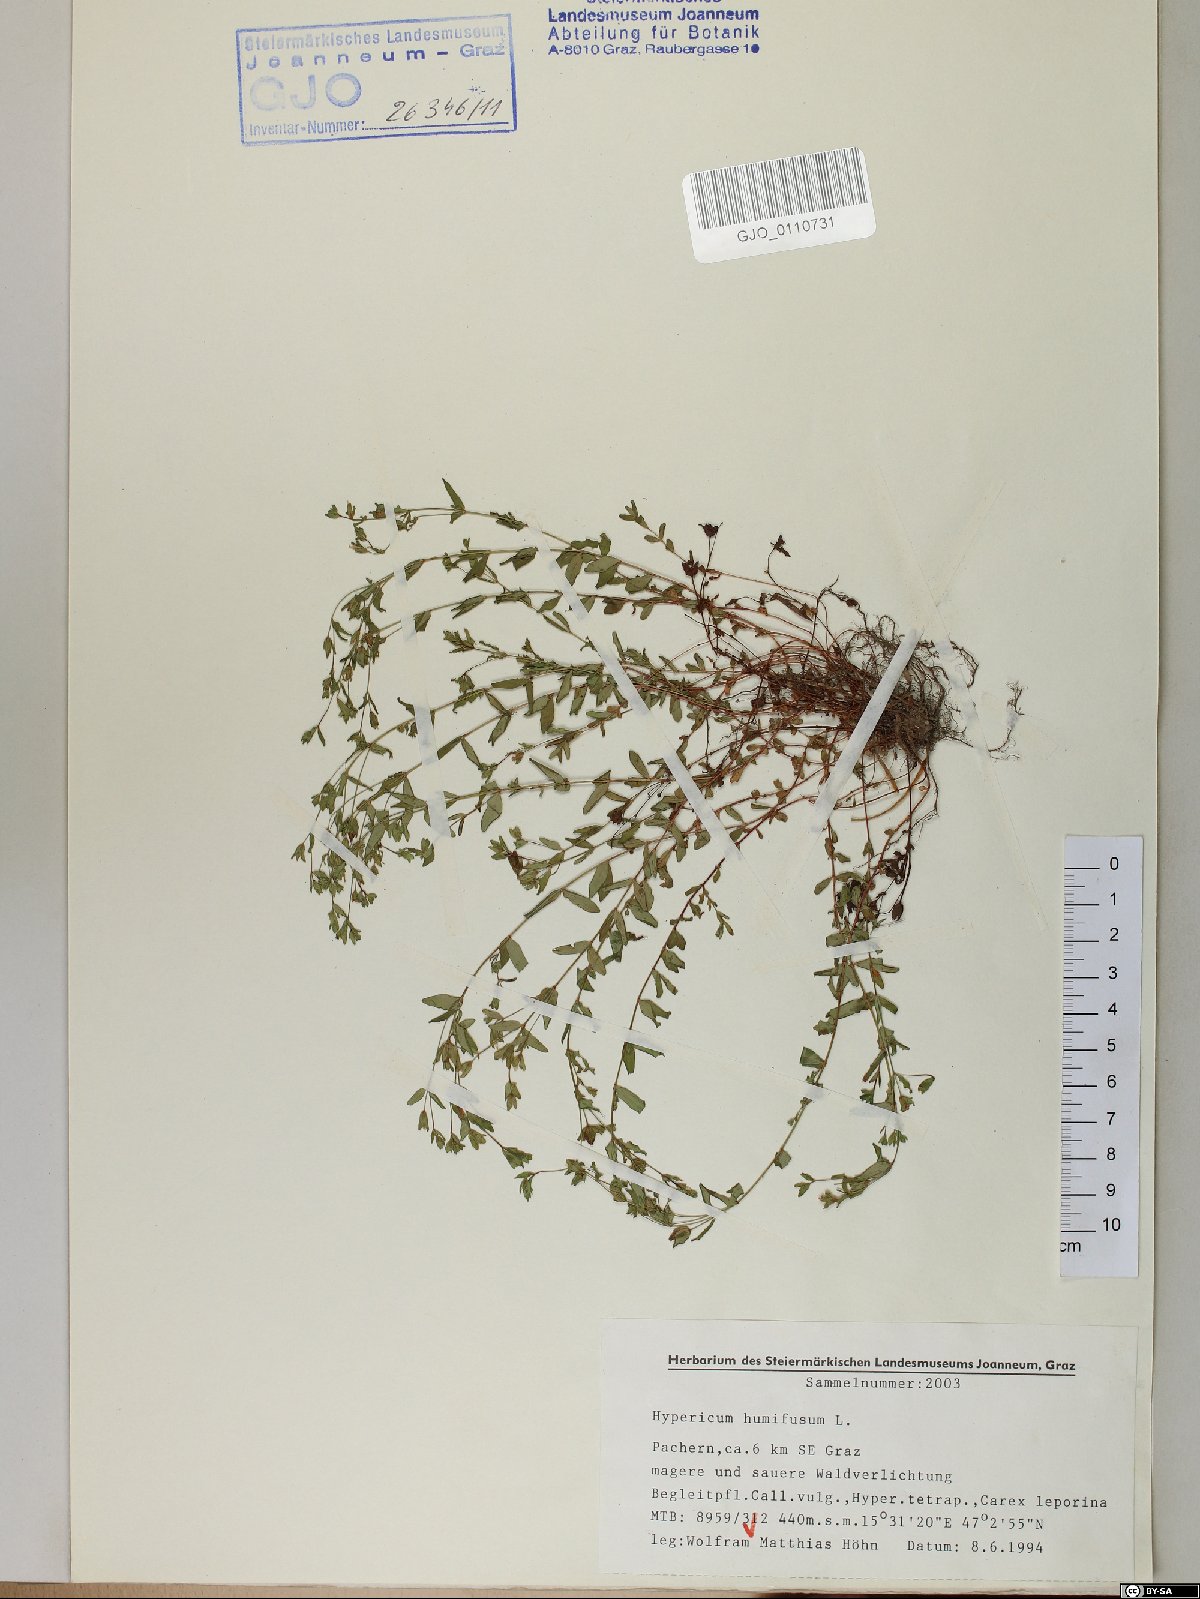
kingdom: Plantae
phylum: Tracheophyta
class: Magnoliopsida
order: Malpighiales
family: Hypericaceae
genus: Hypericum
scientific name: Hypericum humifusum
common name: Trailing st. john's-wort
